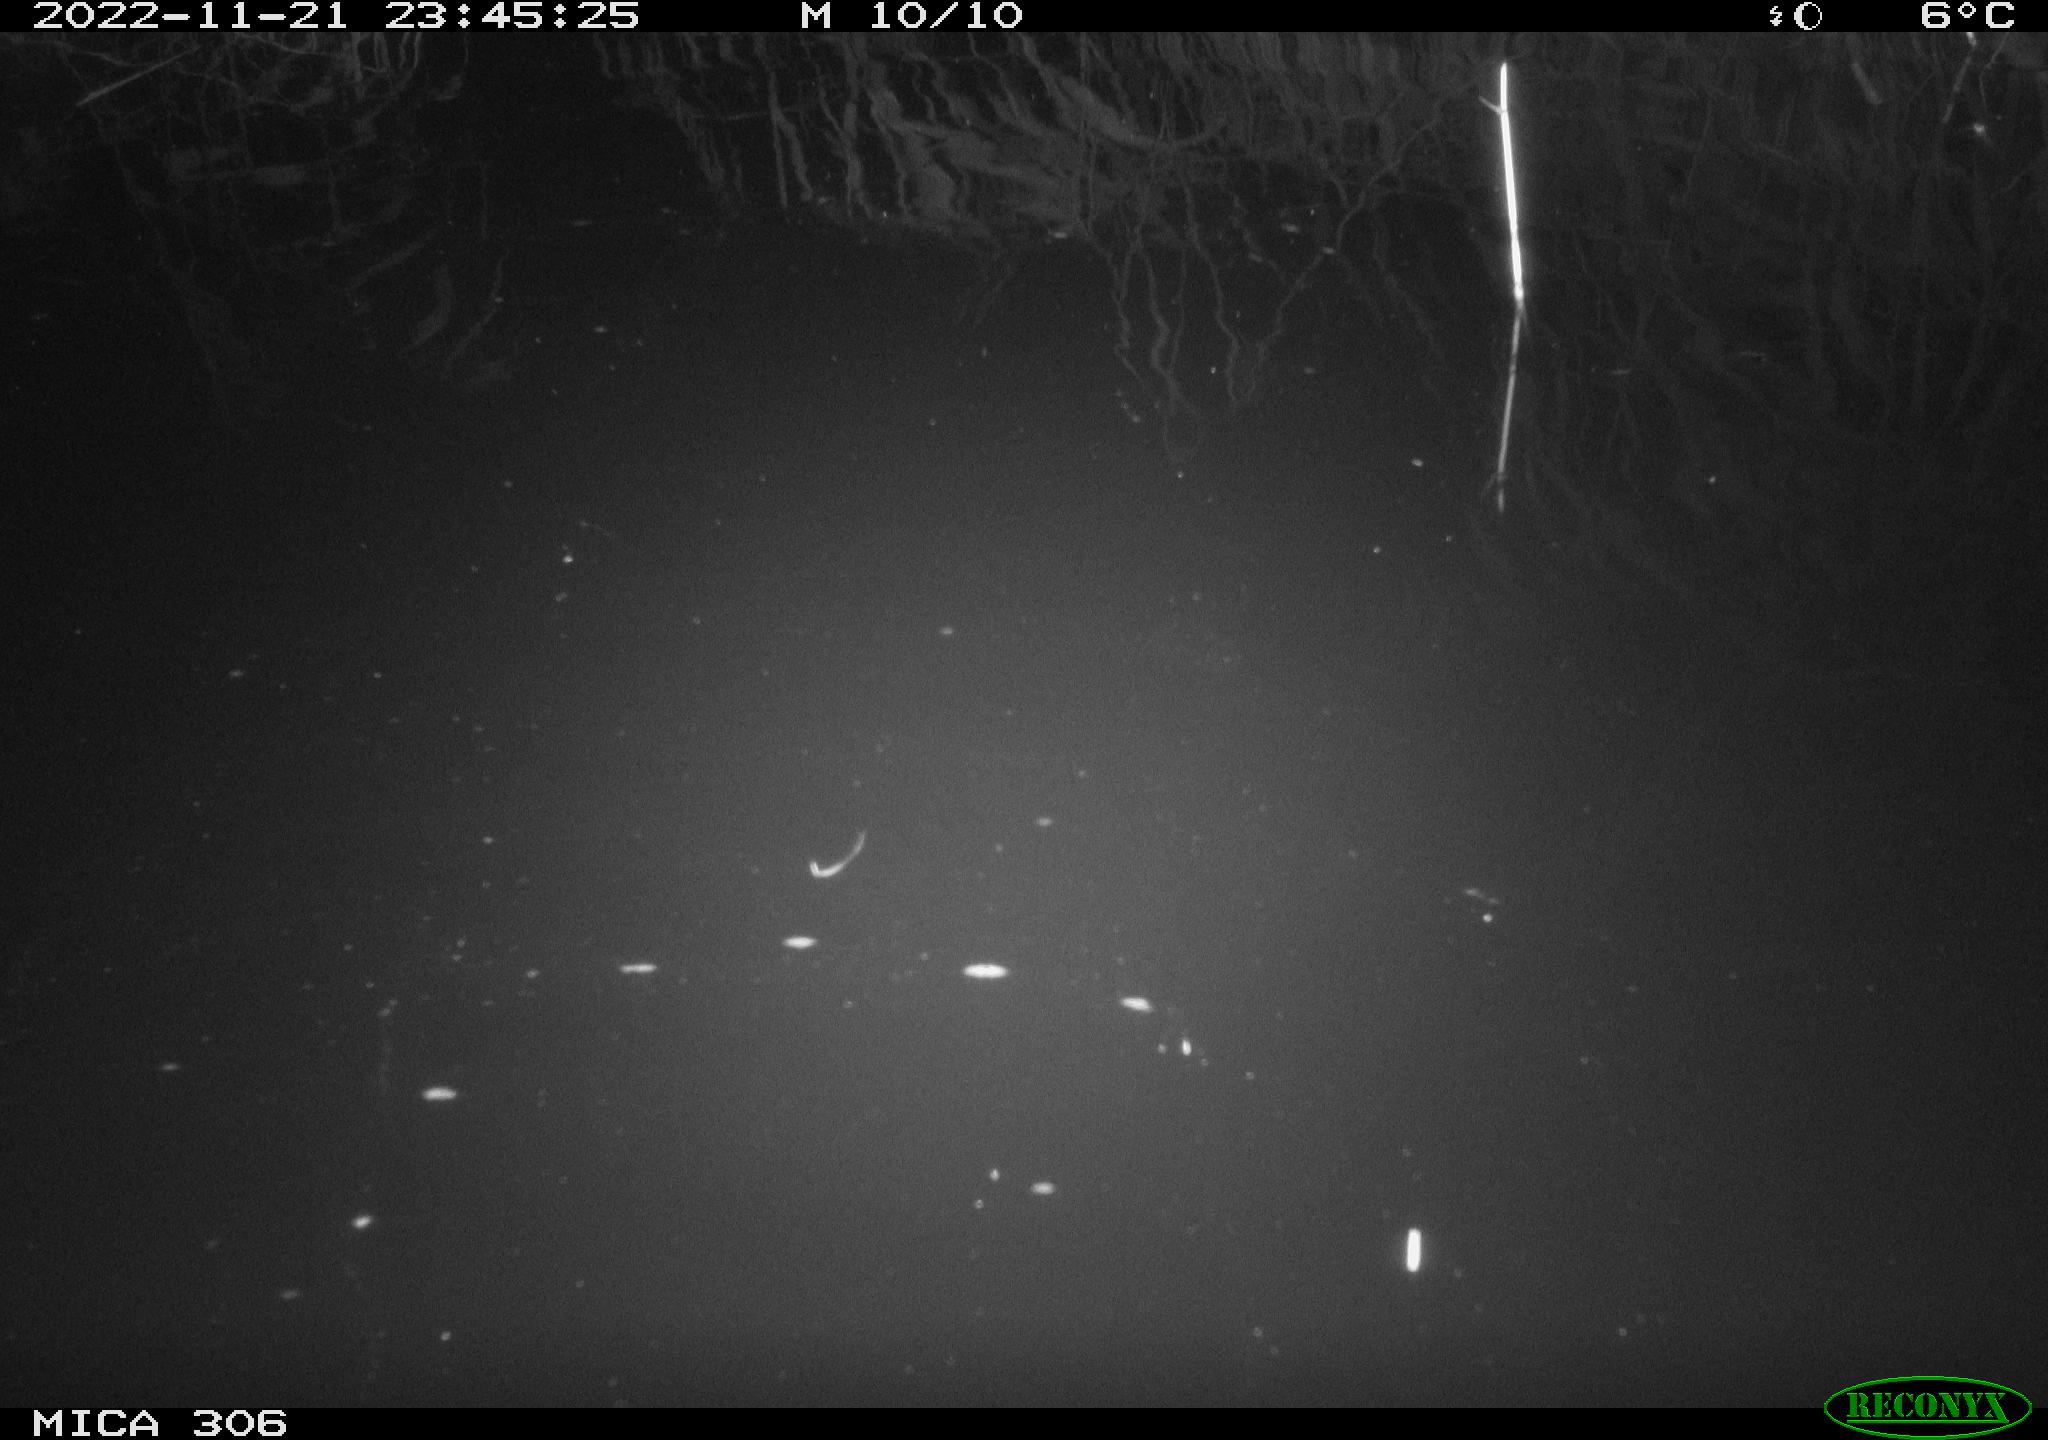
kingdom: Animalia
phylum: Chordata
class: Mammalia
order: Rodentia
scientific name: Rodentia
